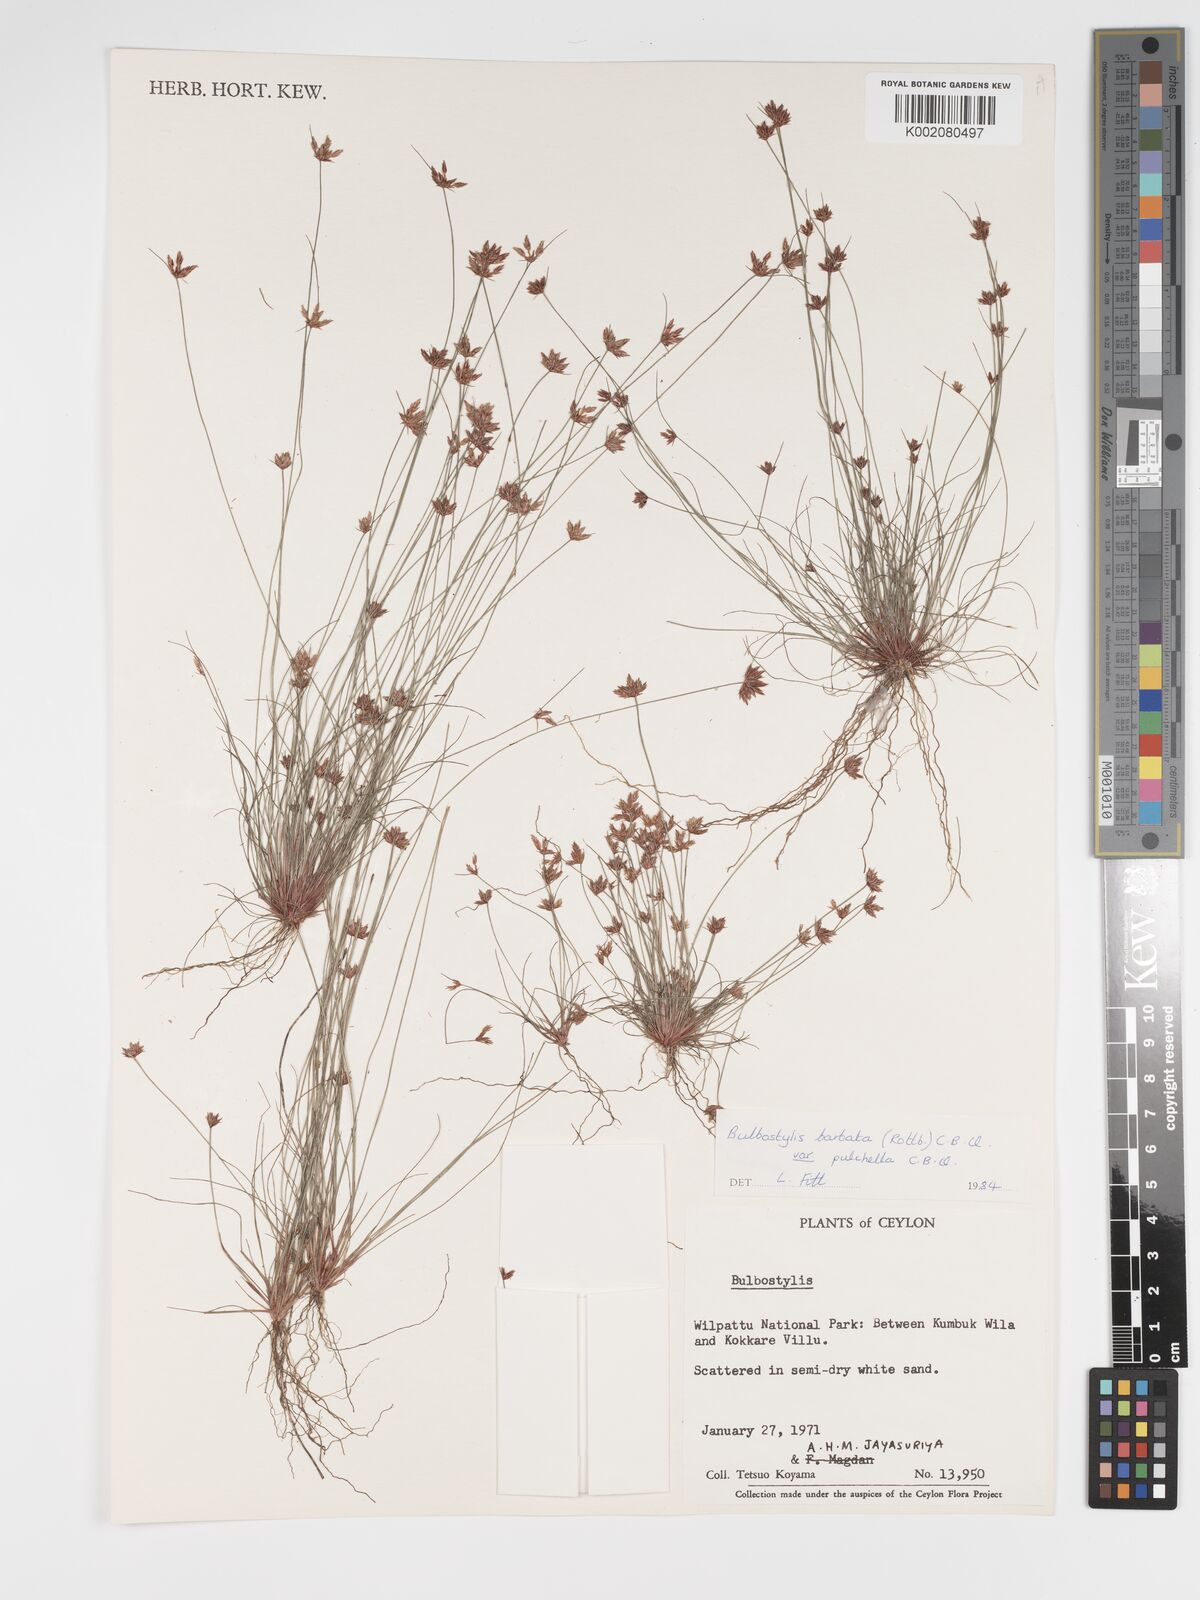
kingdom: Plantae
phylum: Tracheophyta
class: Liliopsida
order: Poales
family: Cyperaceae
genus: Bulbostylis
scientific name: Bulbostylis barbata
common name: Watergrass
